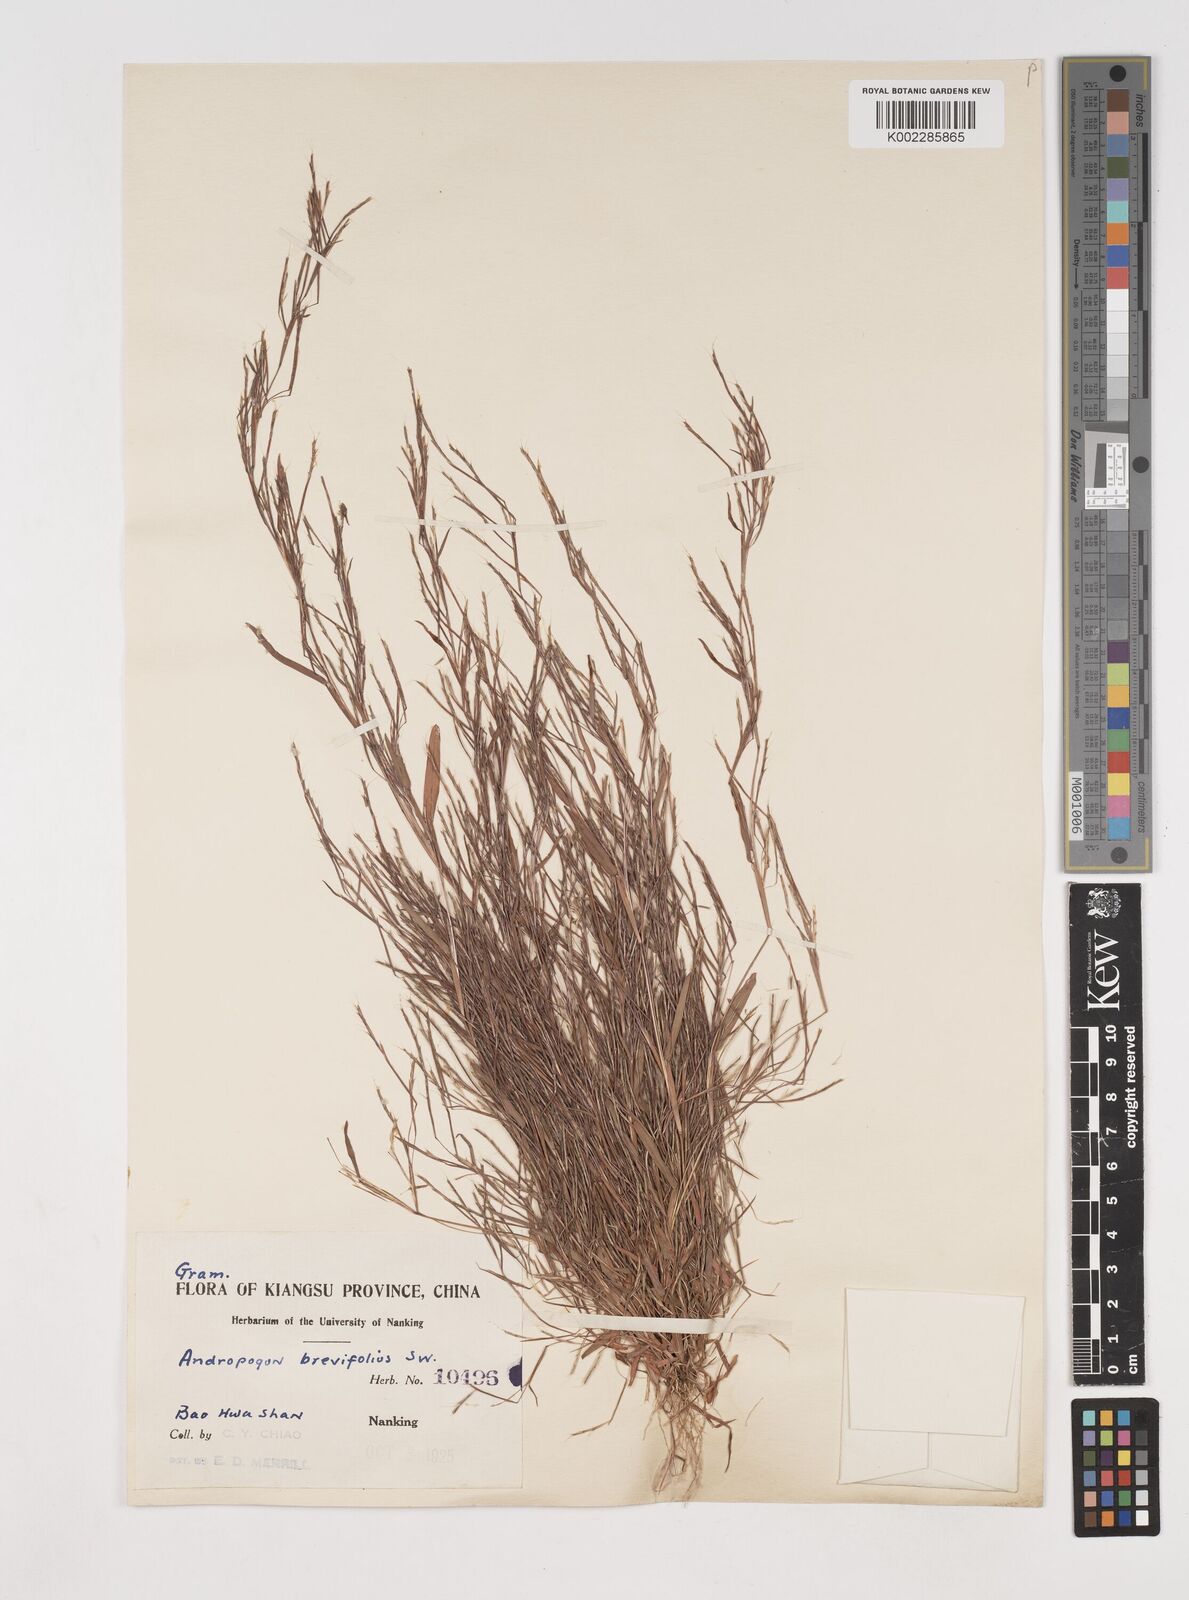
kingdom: Plantae
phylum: Tracheophyta
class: Liliopsida
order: Poales
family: Poaceae
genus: Schizachyrium
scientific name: Schizachyrium brevifolium
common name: Serillo dulce
